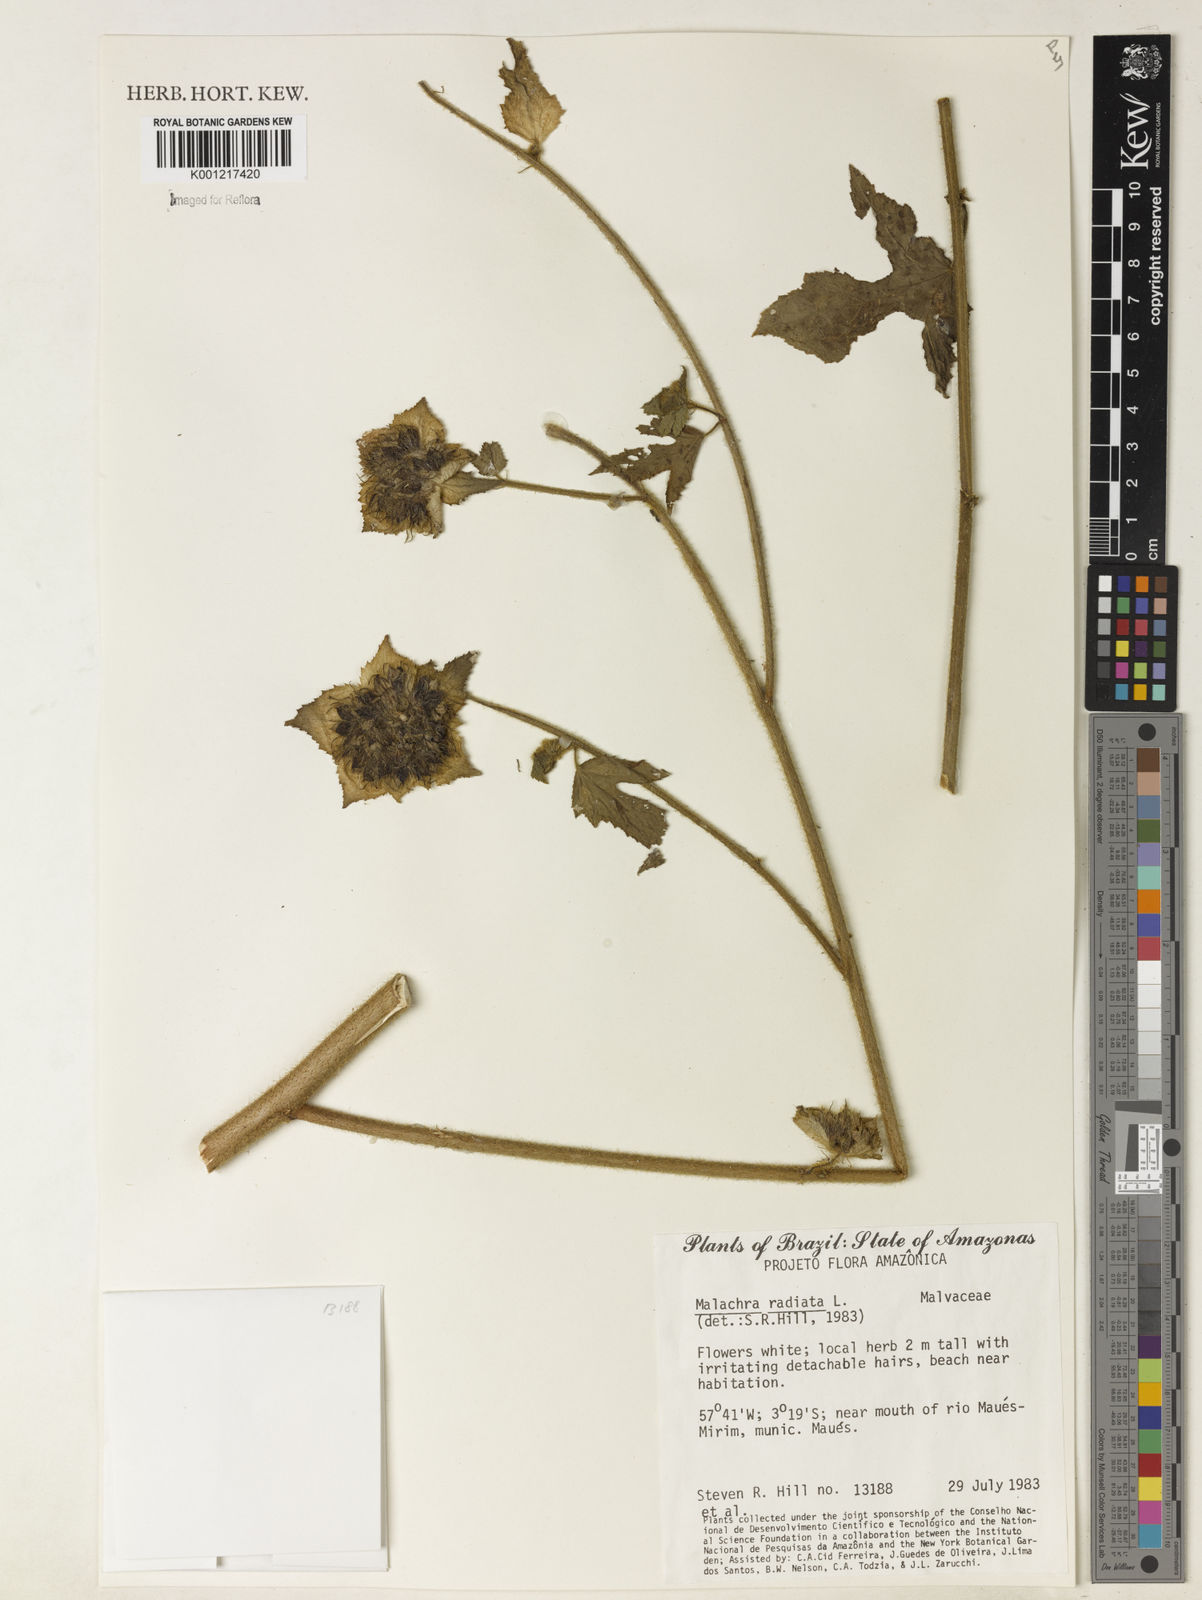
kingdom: Plantae
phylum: Tracheophyta
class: Magnoliopsida
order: Malvales
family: Malvaceae
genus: Malachra
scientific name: Malachra radiata
